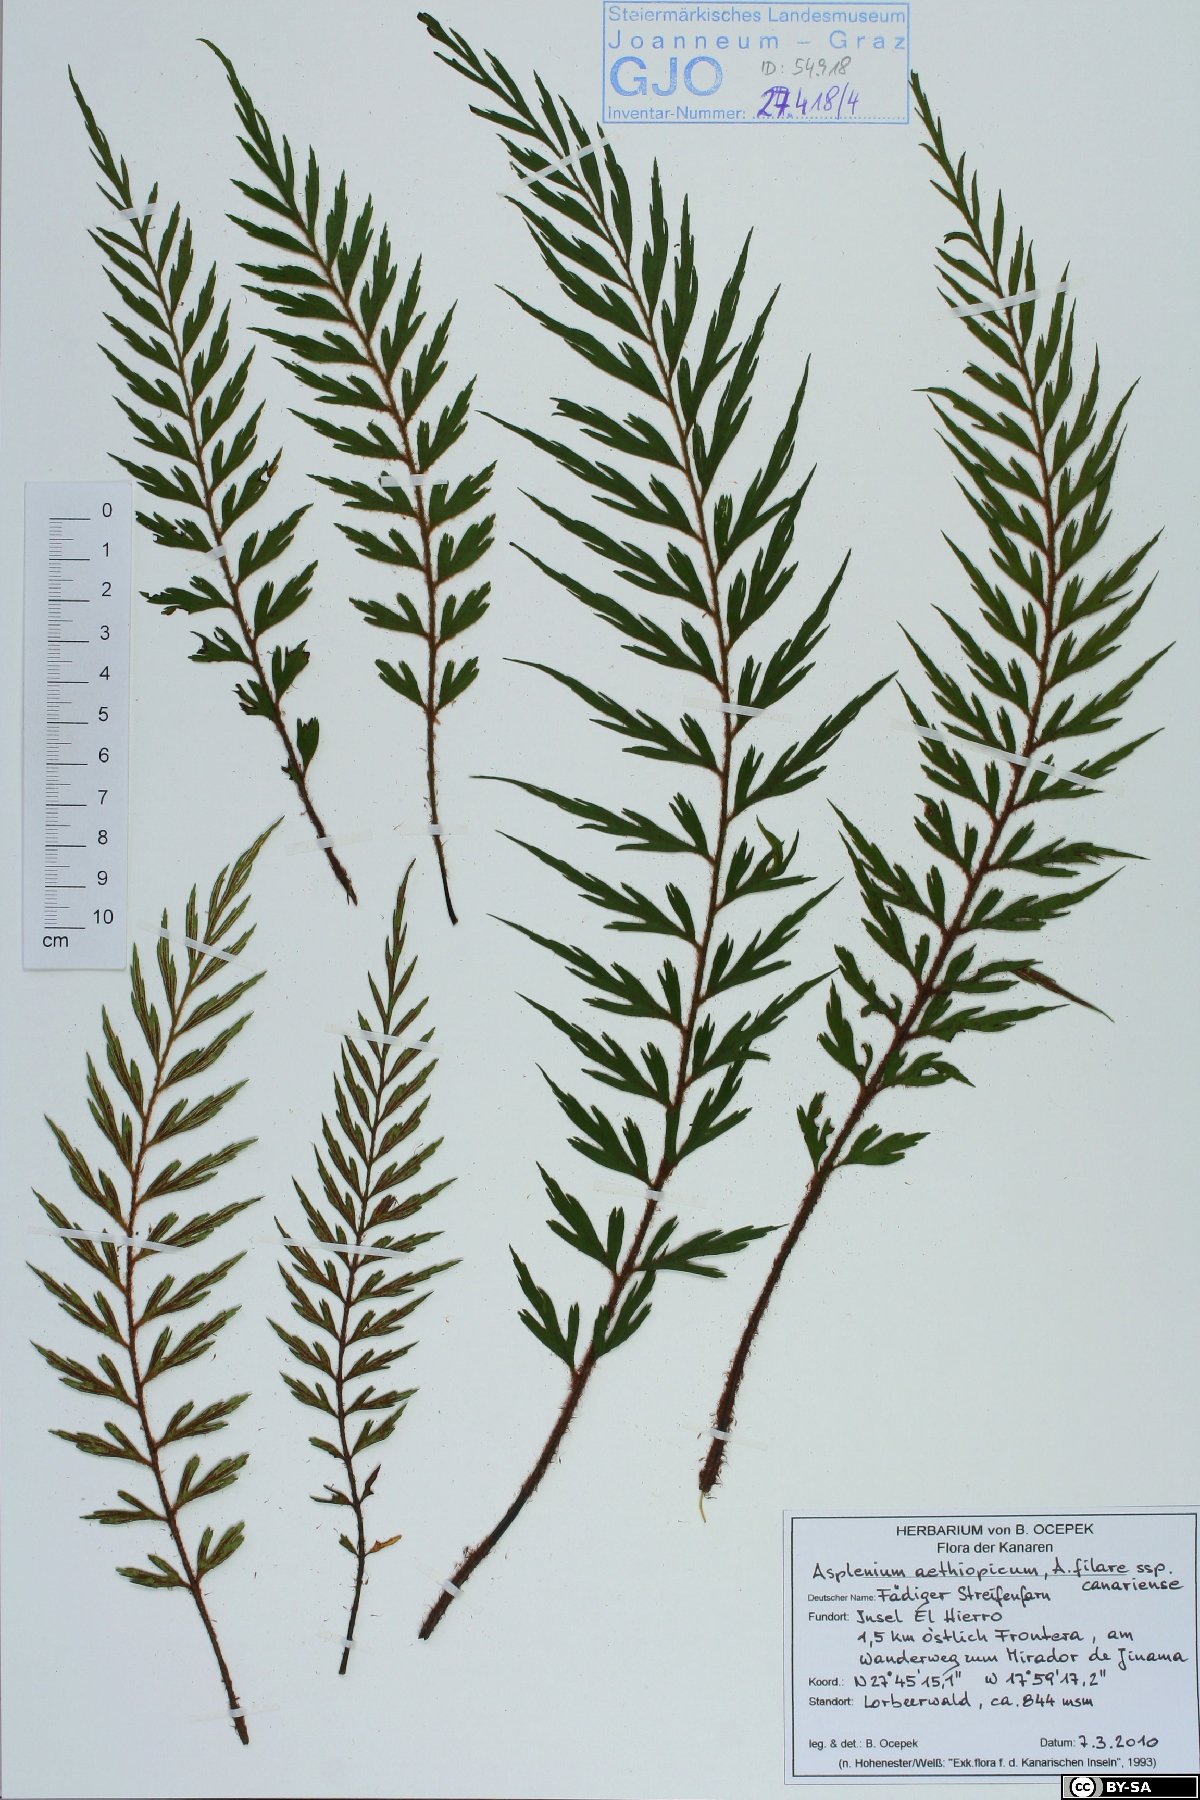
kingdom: Plantae
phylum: Tracheophyta
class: Polypodiopsida
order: Polypodiales
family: Aspleniaceae
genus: Asplenium
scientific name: Asplenium aethiopicum
